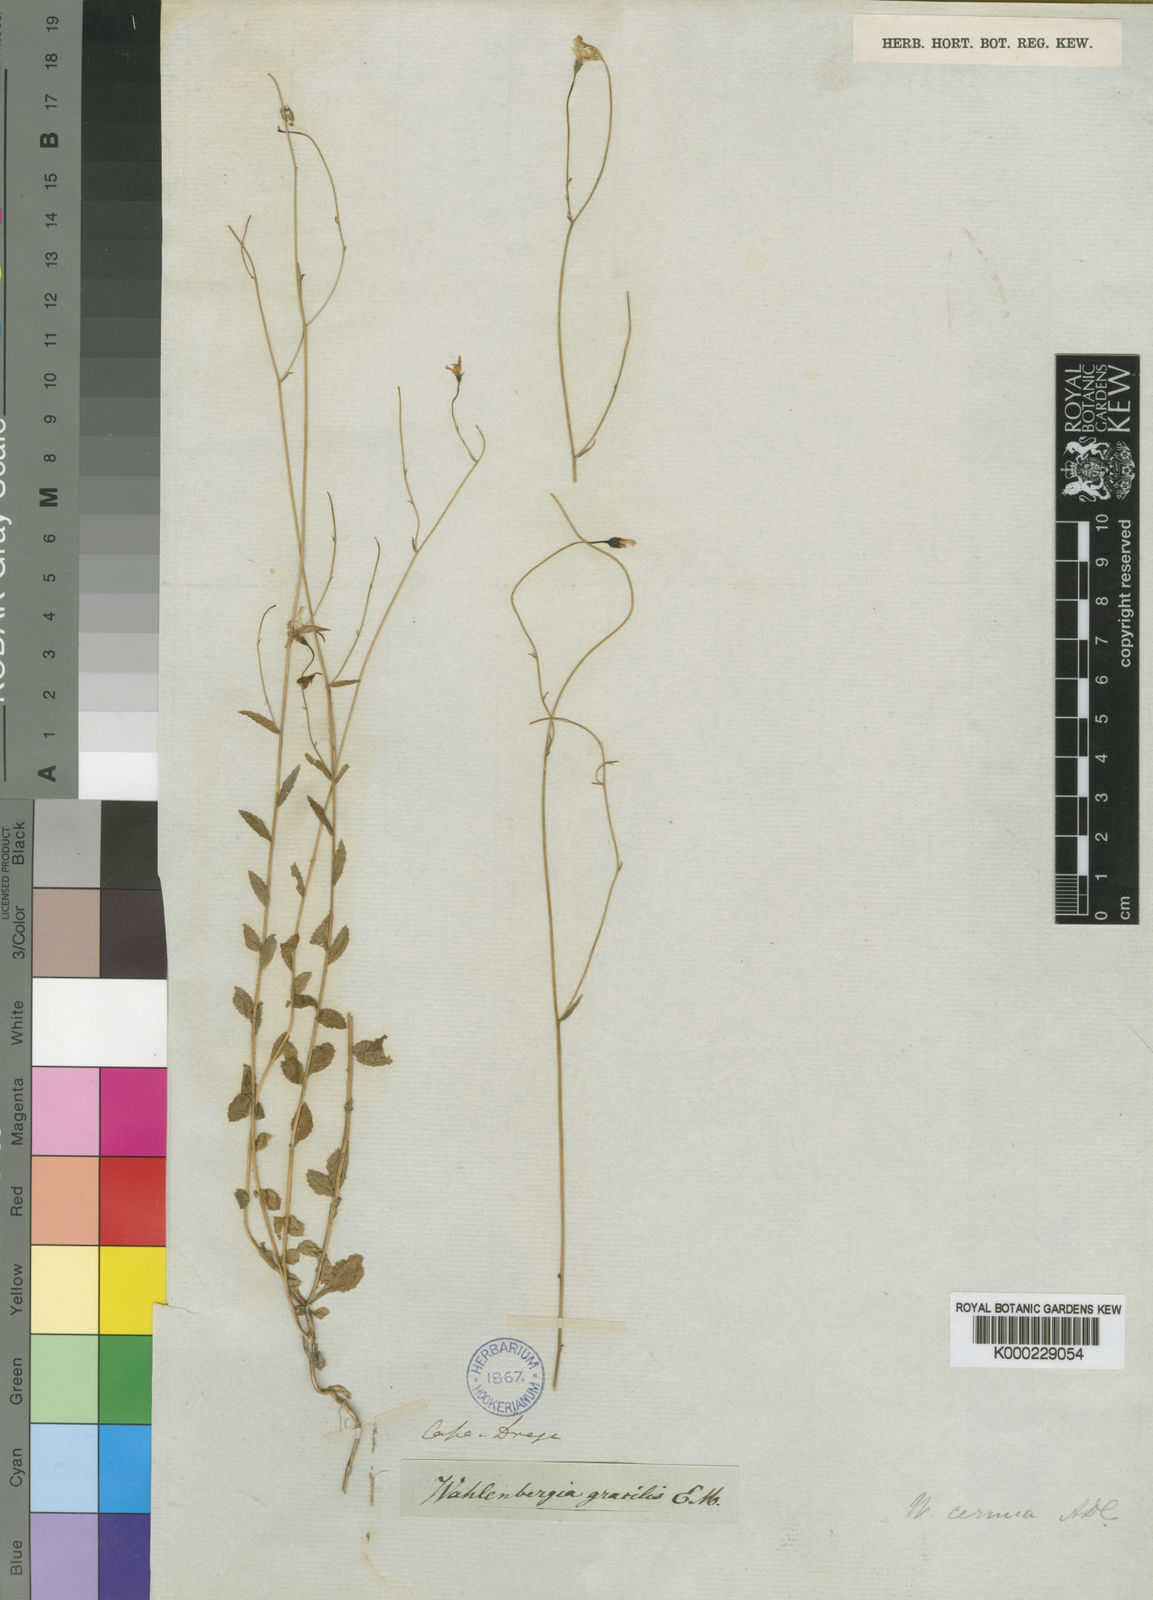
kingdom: Plantae
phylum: Tracheophyta
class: Magnoliopsida
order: Asterales
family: Campanulaceae
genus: Wahlenbergia
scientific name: Wahlenbergia
